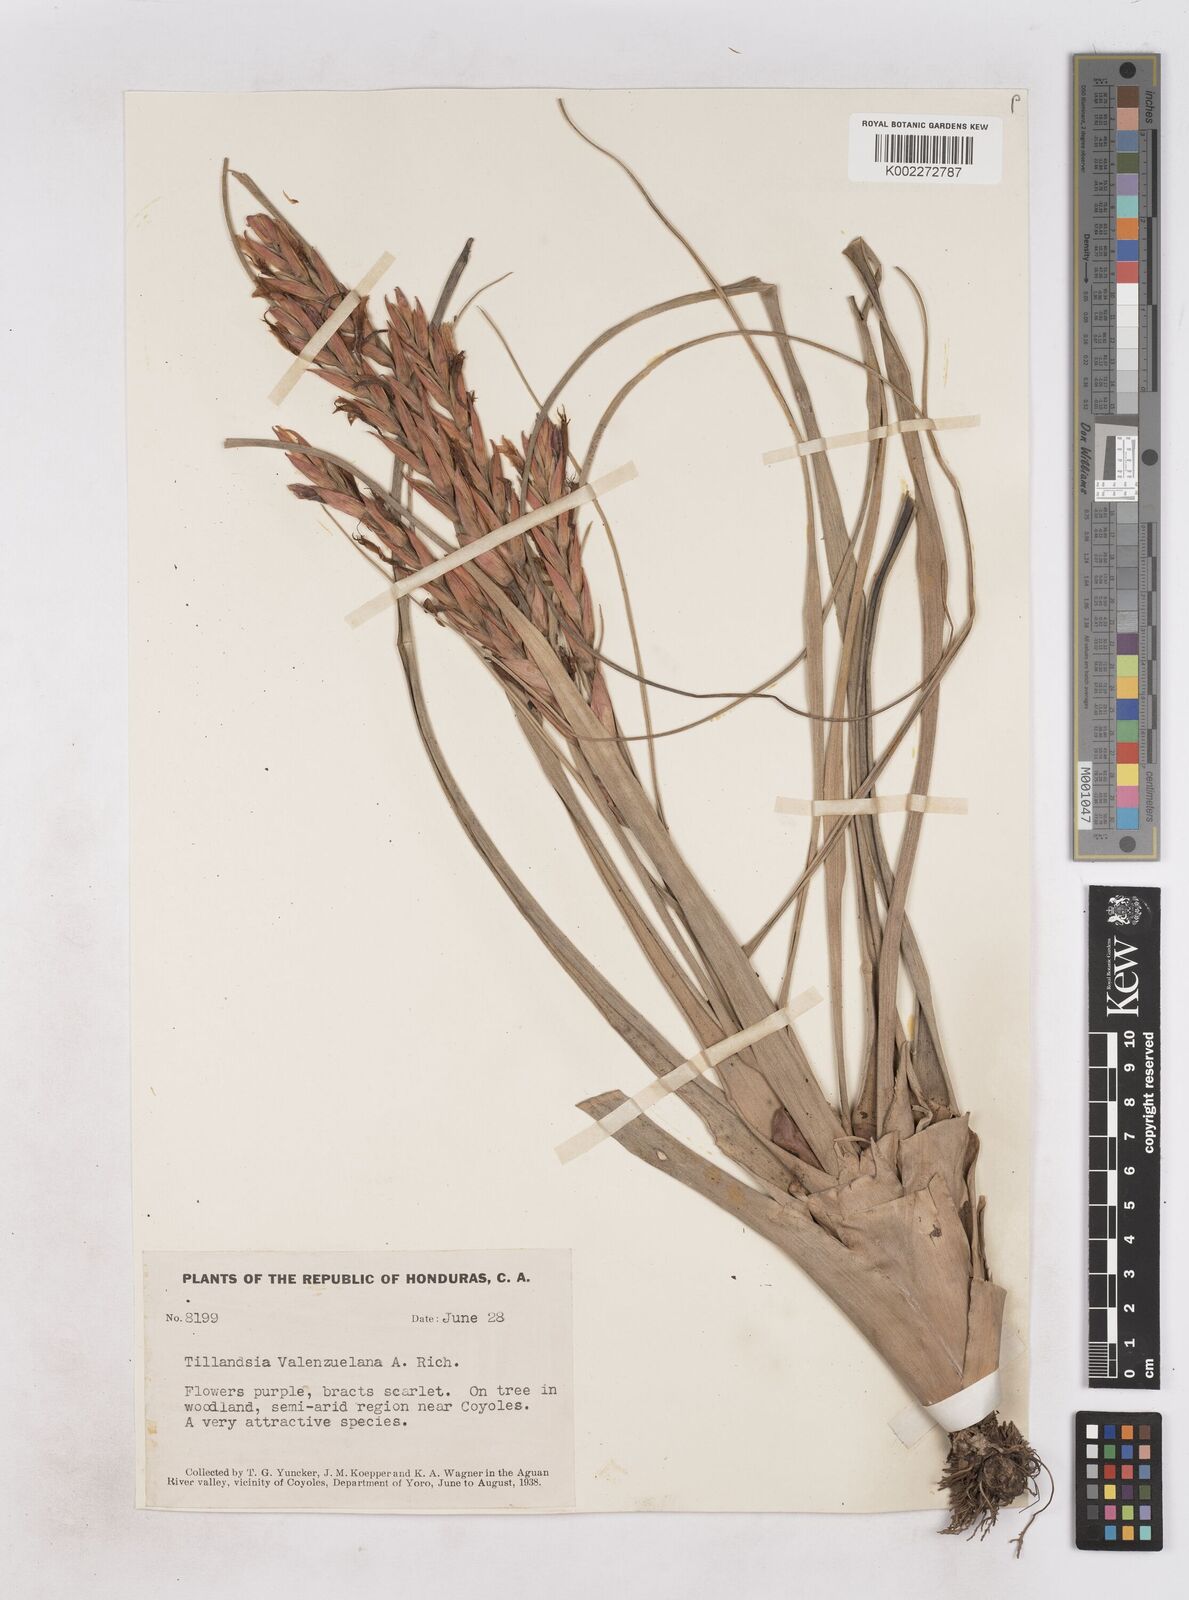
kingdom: Plantae
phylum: Tracheophyta
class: Liliopsida
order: Poales
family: Bromeliaceae
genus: Tillandsia
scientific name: Tillandsia variabilis
